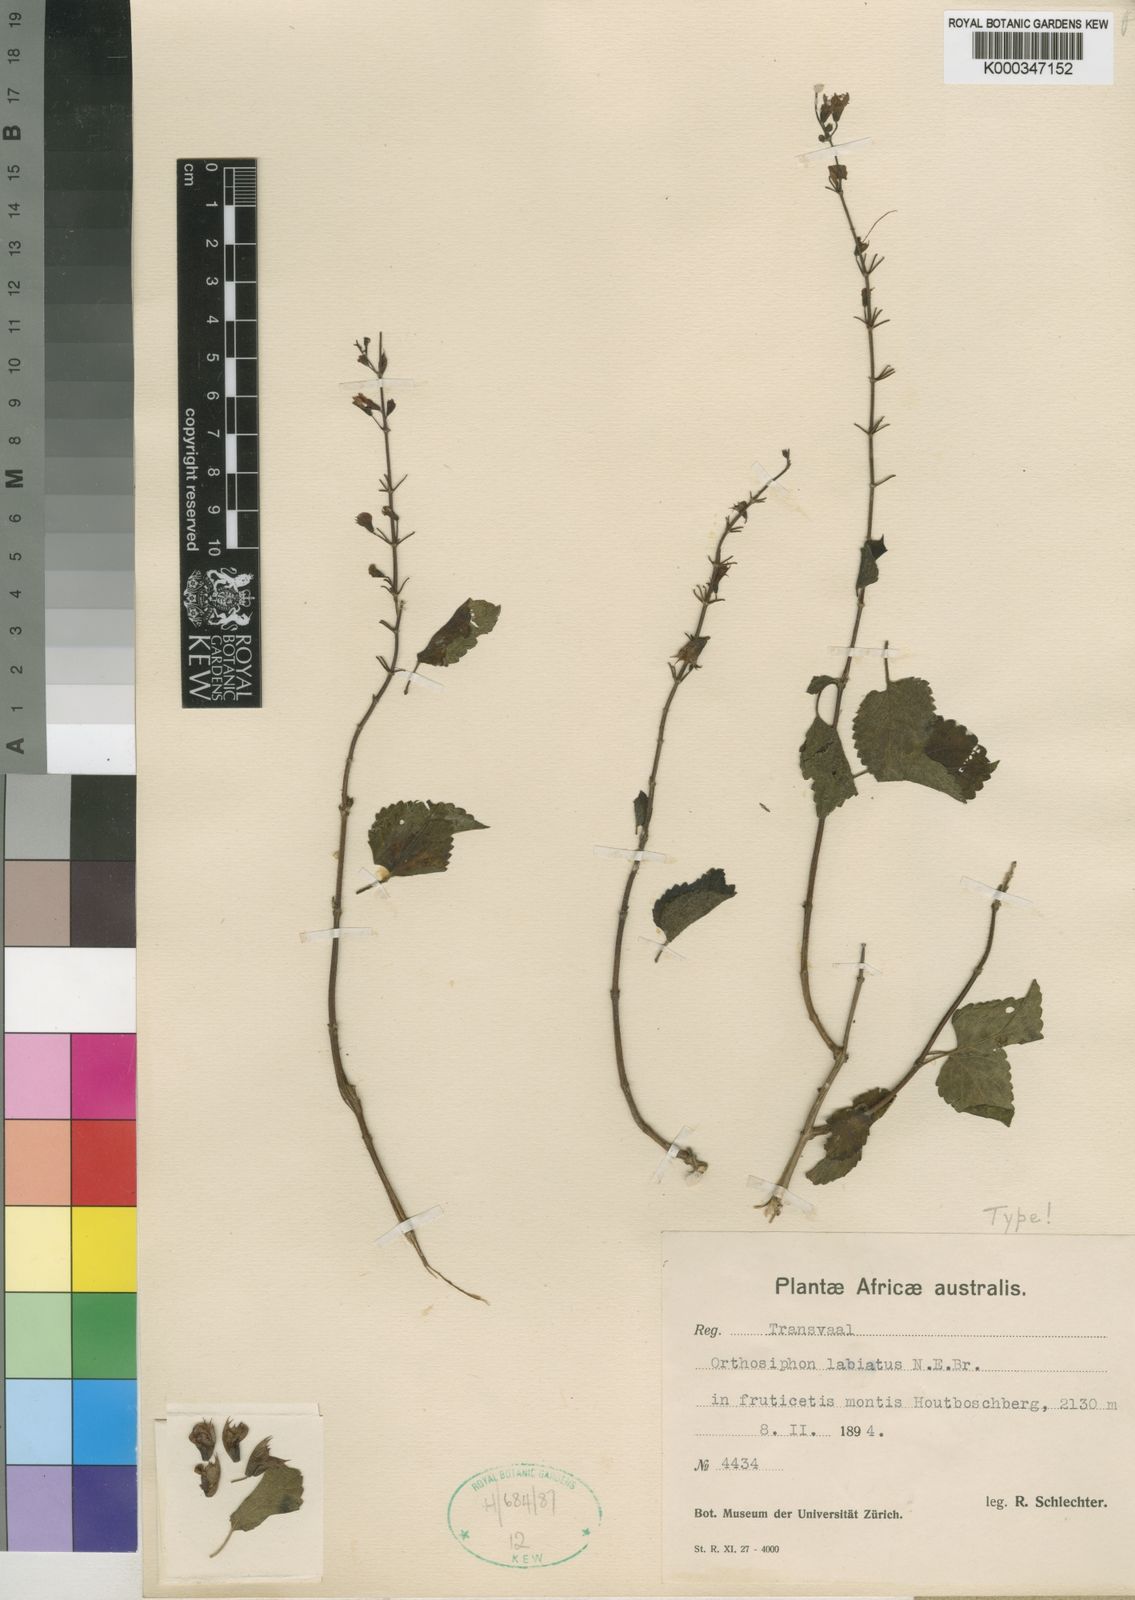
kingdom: Plantae
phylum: Tracheophyta
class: Magnoliopsida
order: Lamiales
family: Lamiaceae
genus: Ocimum
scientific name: Ocimum labiatum
